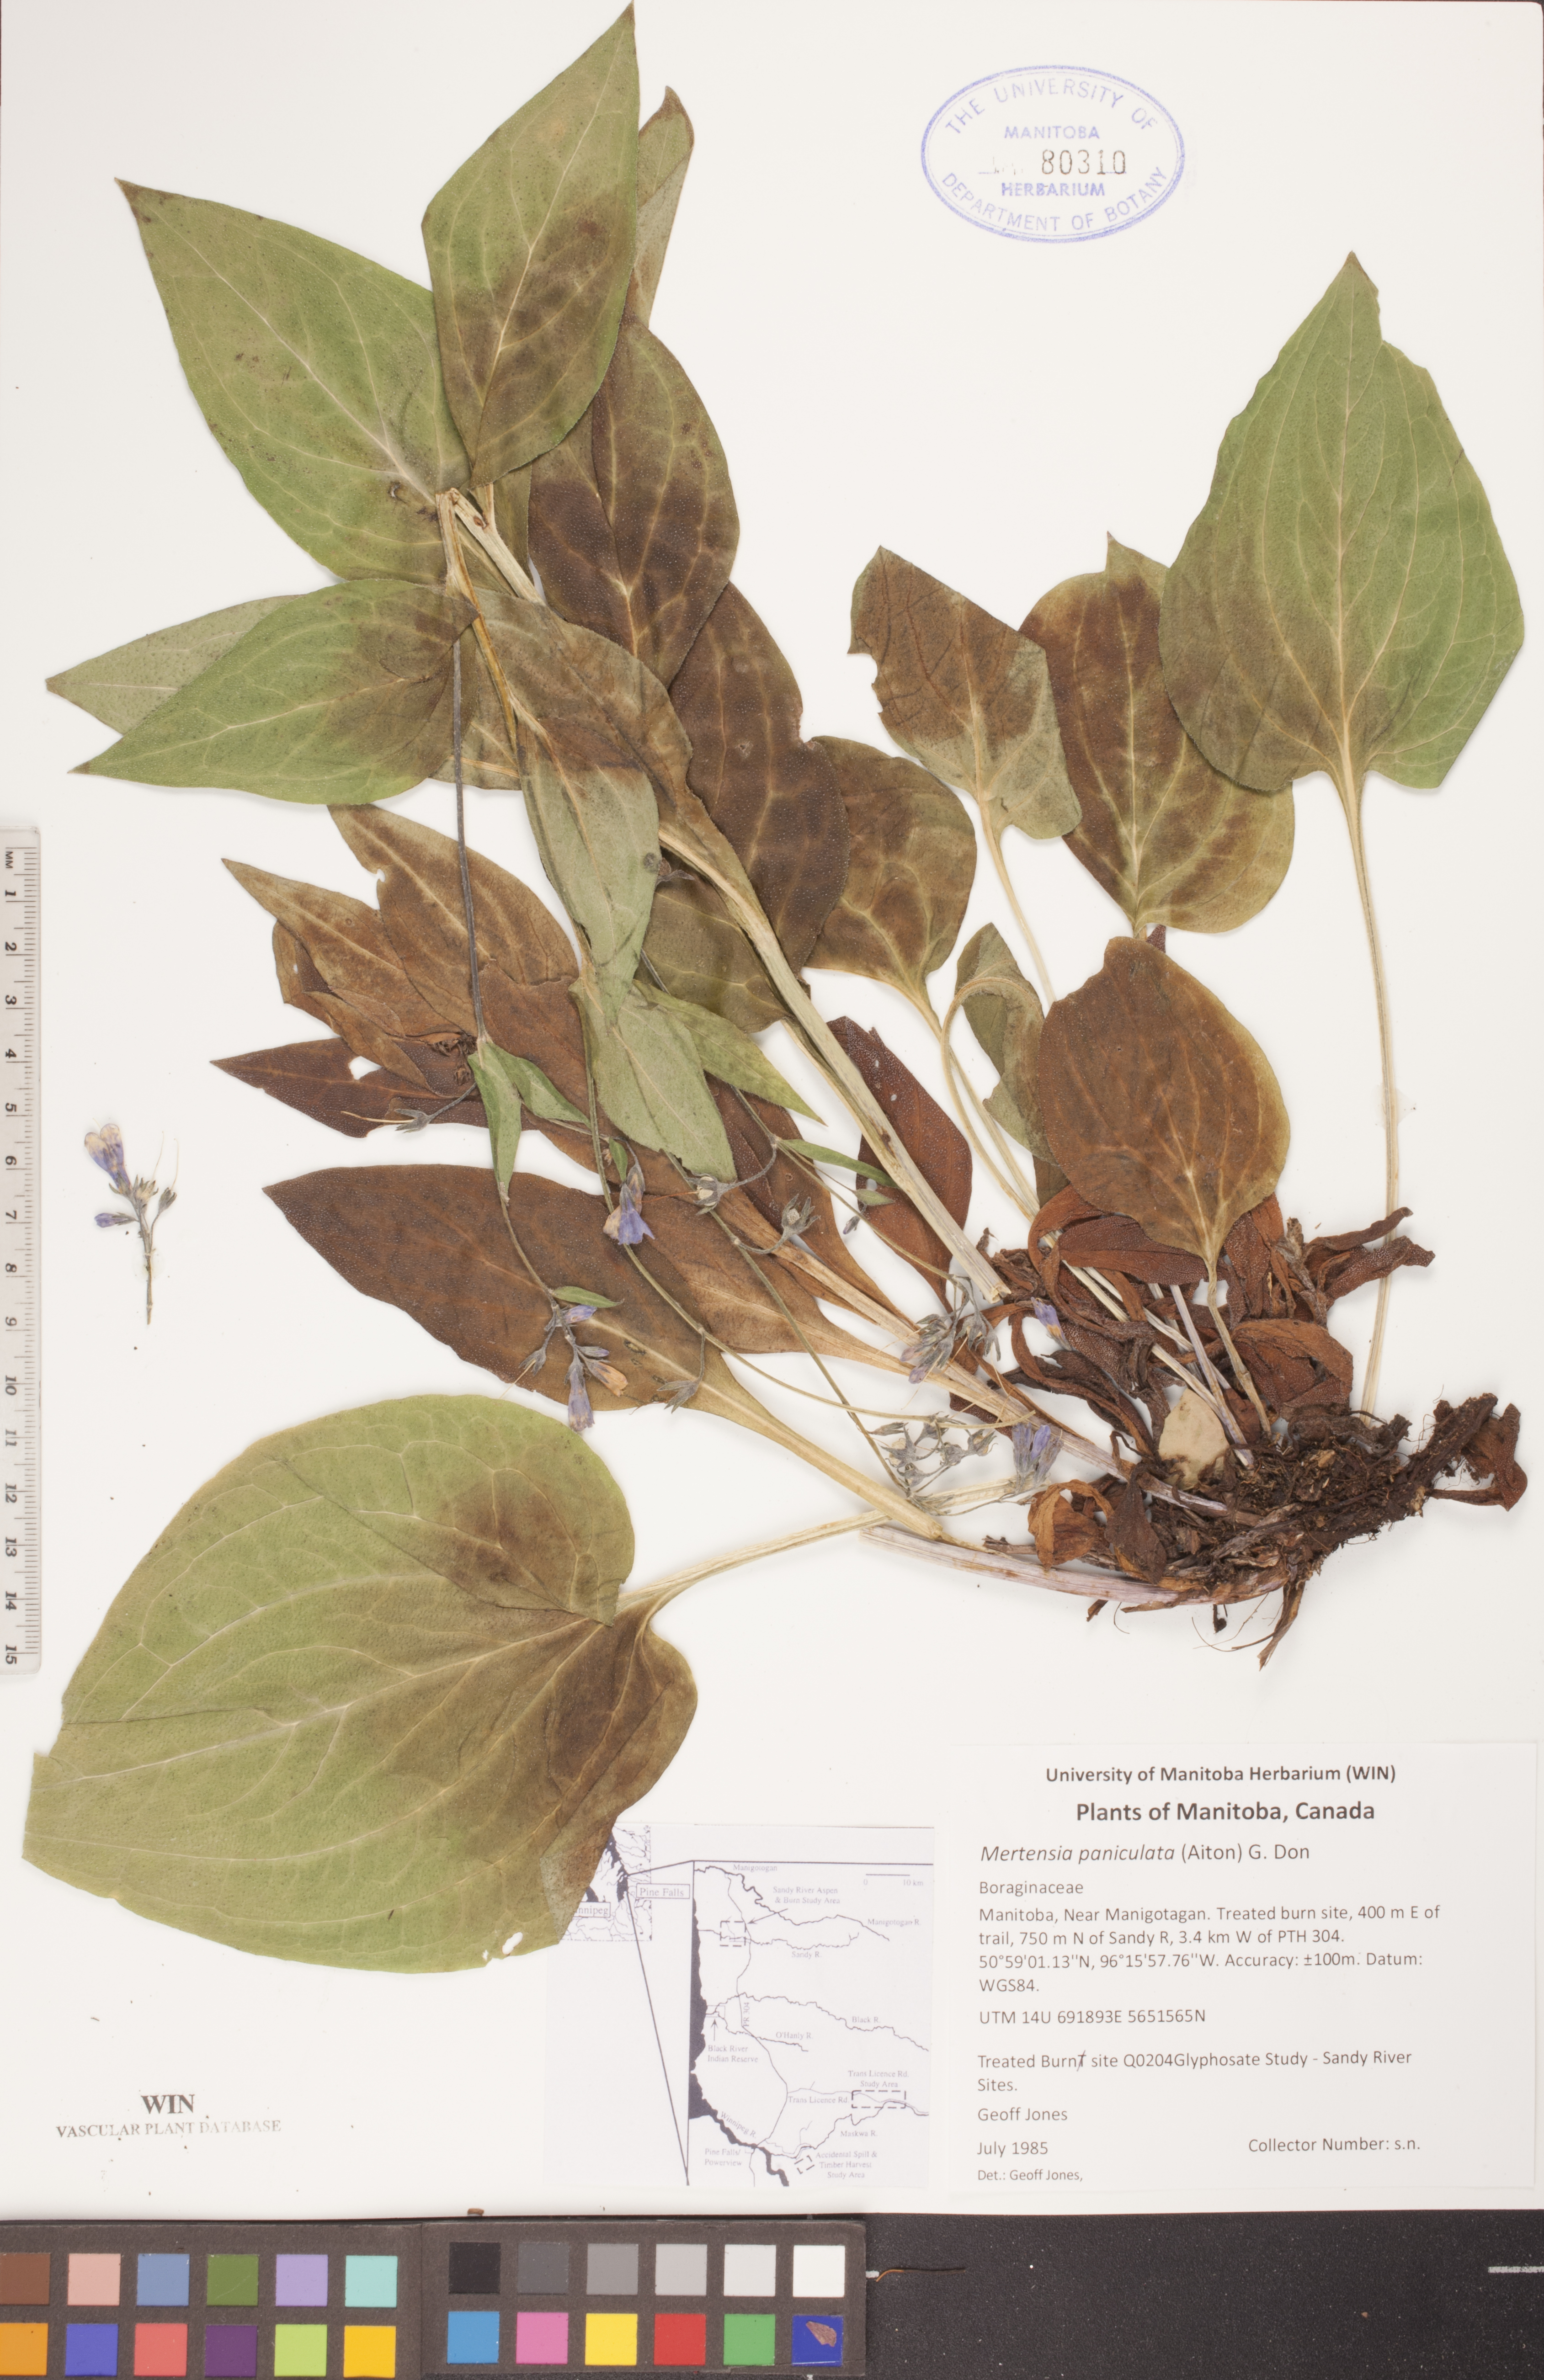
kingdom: Plantae
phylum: Tracheophyta
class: Magnoliopsida
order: Boraginales
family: Boraginaceae
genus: Mertensia
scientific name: Mertensia paniculata
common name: Panicled bluebells
